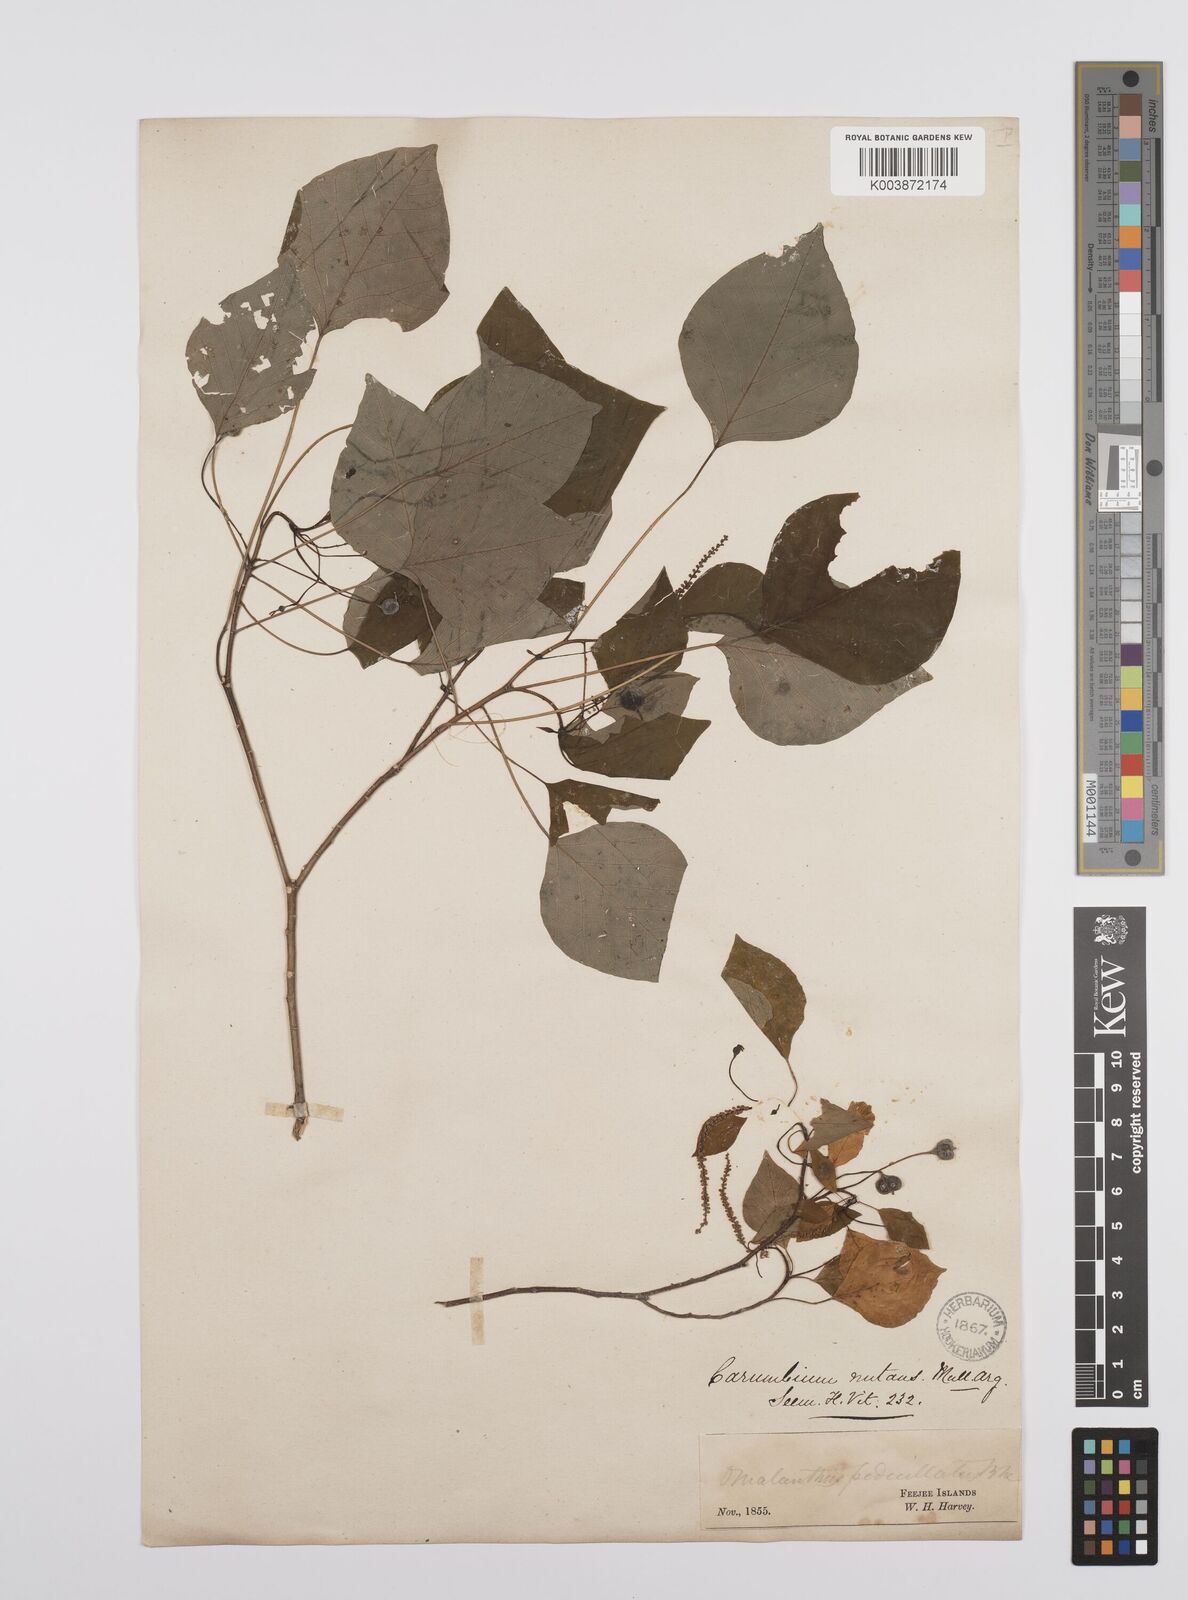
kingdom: Plantae
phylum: Tracheophyta
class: Magnoliopsida
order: Malpighiales
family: Euphorbiaceae
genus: Homalanthus
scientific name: Homalanthus nutans
